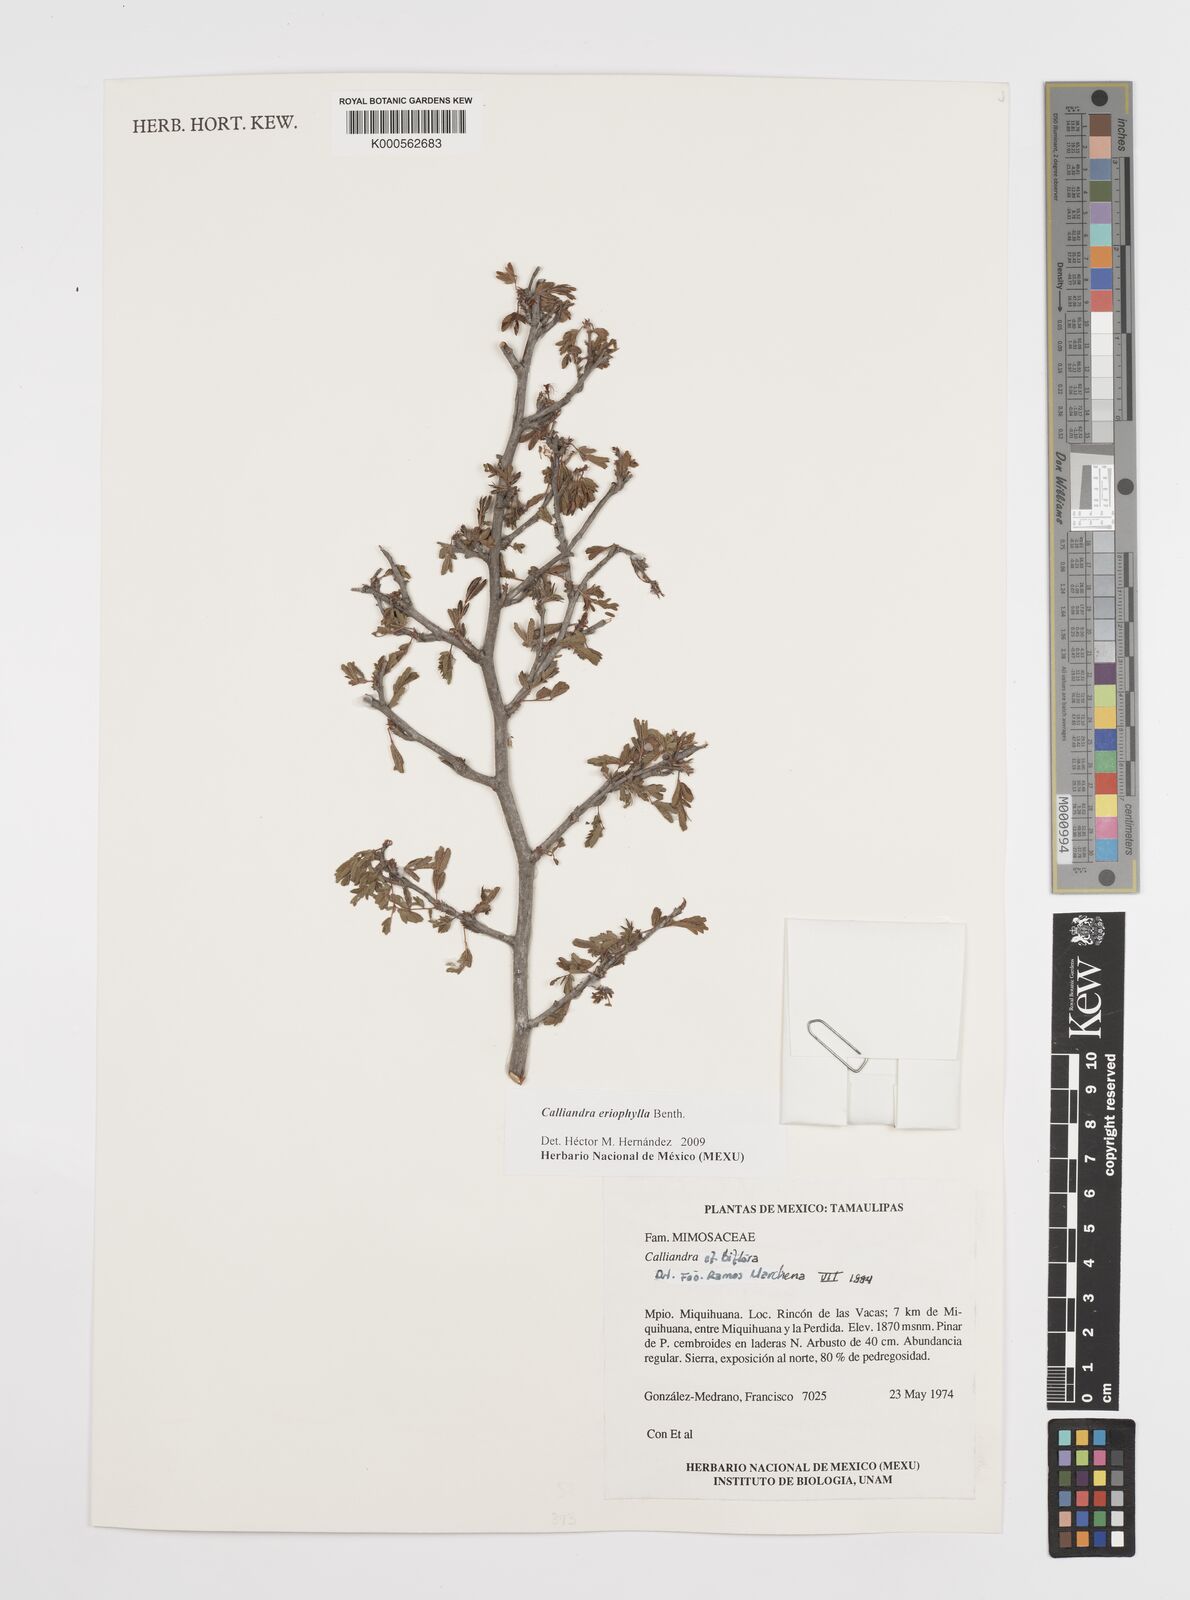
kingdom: Plantae
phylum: Tracheophyta
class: Magnoliopsida
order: Fabales
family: Fabaceae
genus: Calliandra
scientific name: Calliandra eriophylla
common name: Fairy-duster
